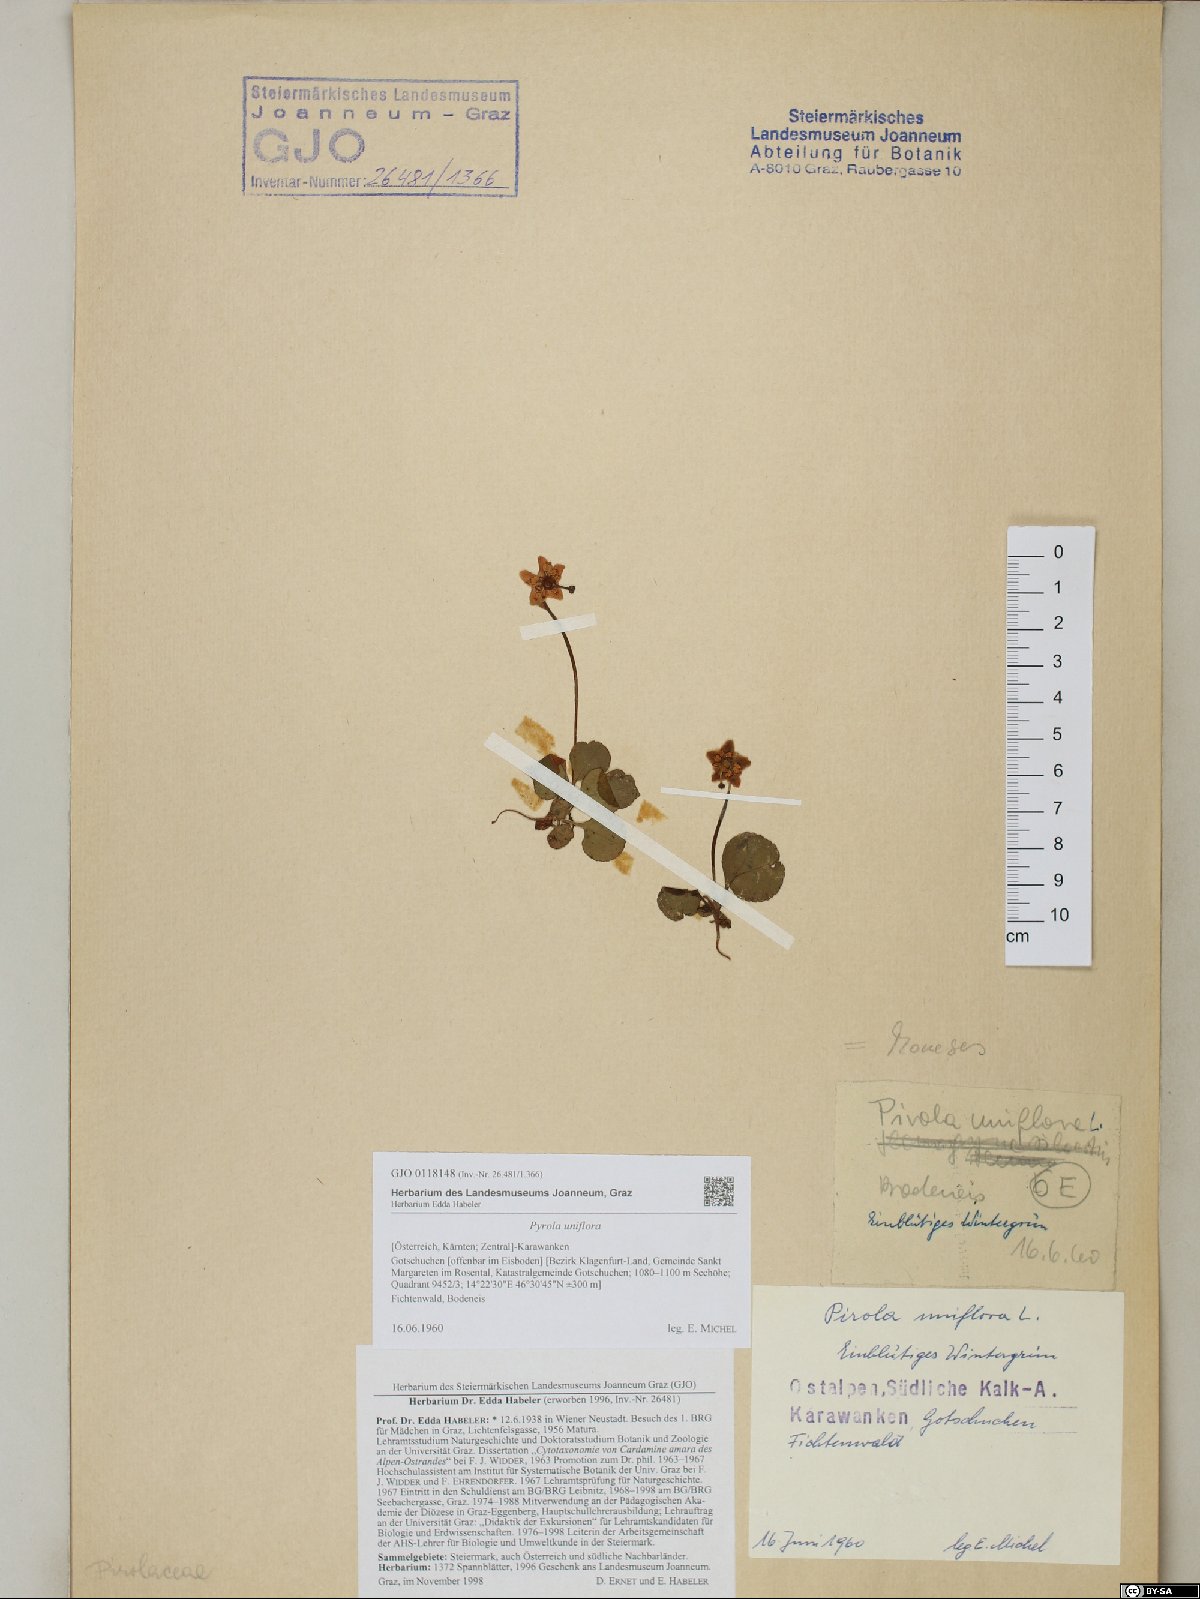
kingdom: Plantae
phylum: Tracheophyta
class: Magnoliopsida
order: Ericales
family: Ericaceae
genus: Moneses
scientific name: Moneses uniflora
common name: One-flowered wintergreen
